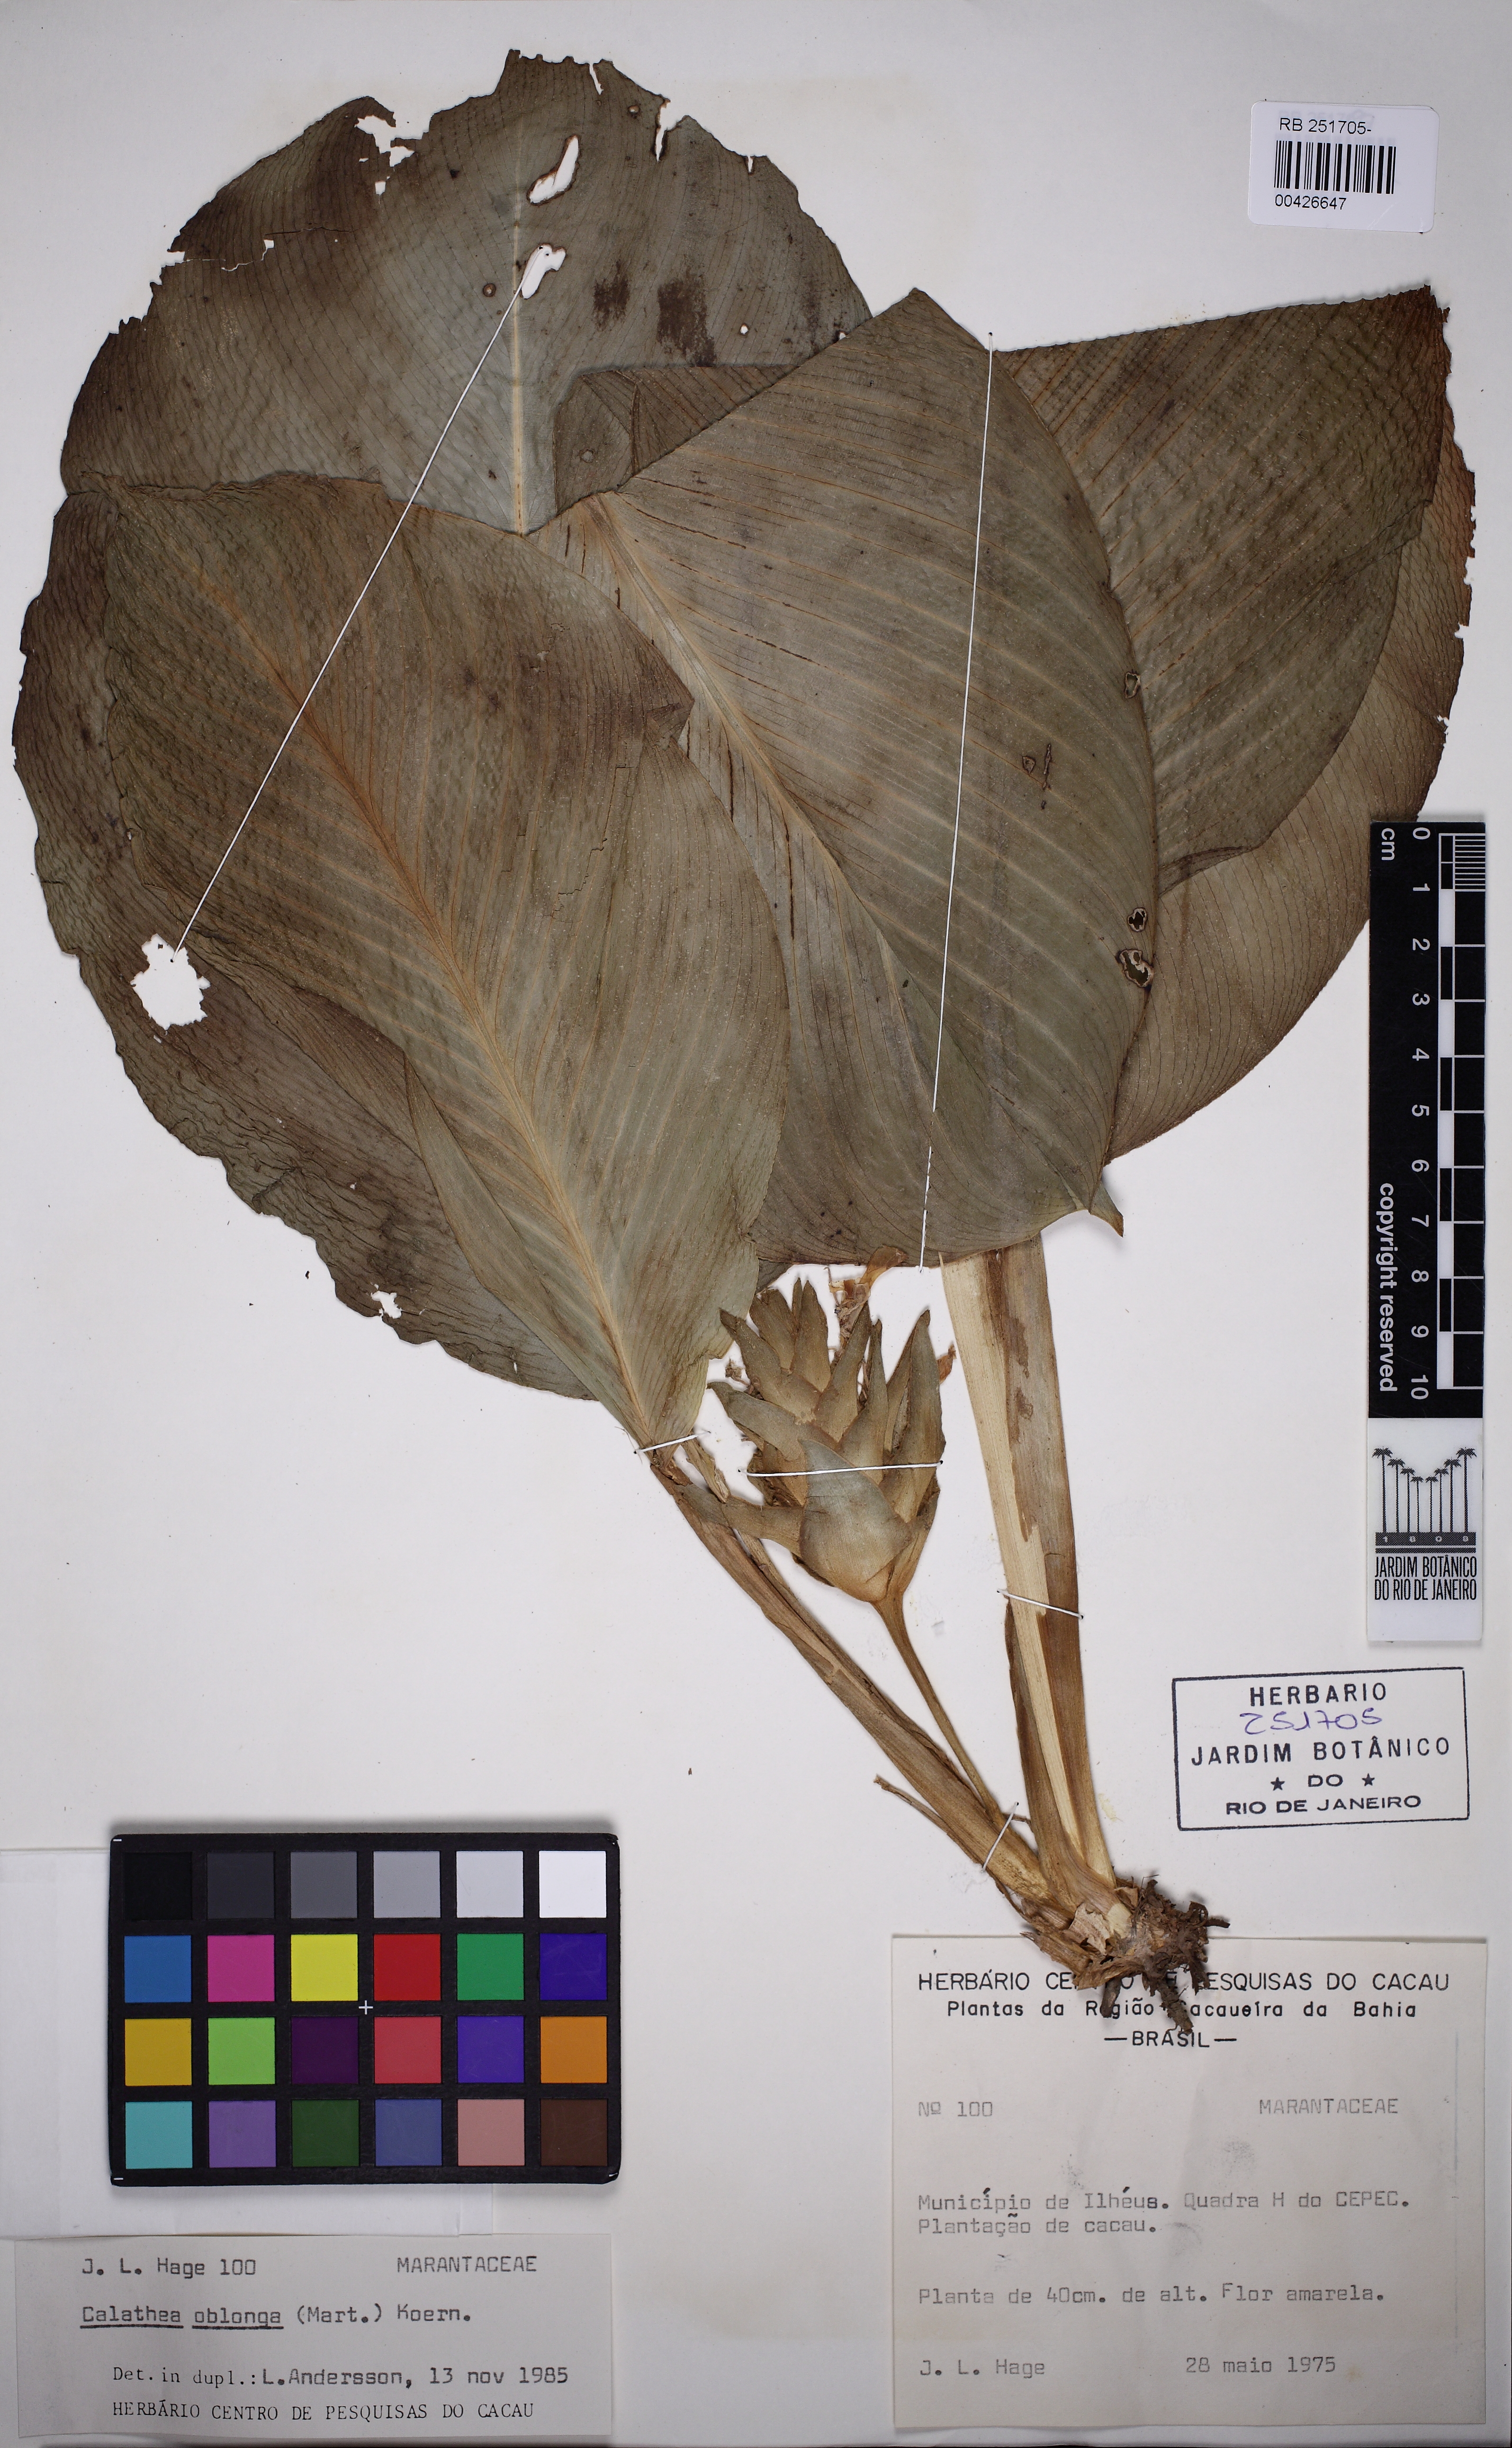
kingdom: Plantae
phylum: Tracheophyta
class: Liliopsida
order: Zingiberales
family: Marantaceae
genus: Goeppertia
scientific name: Goeppertia oblonga
